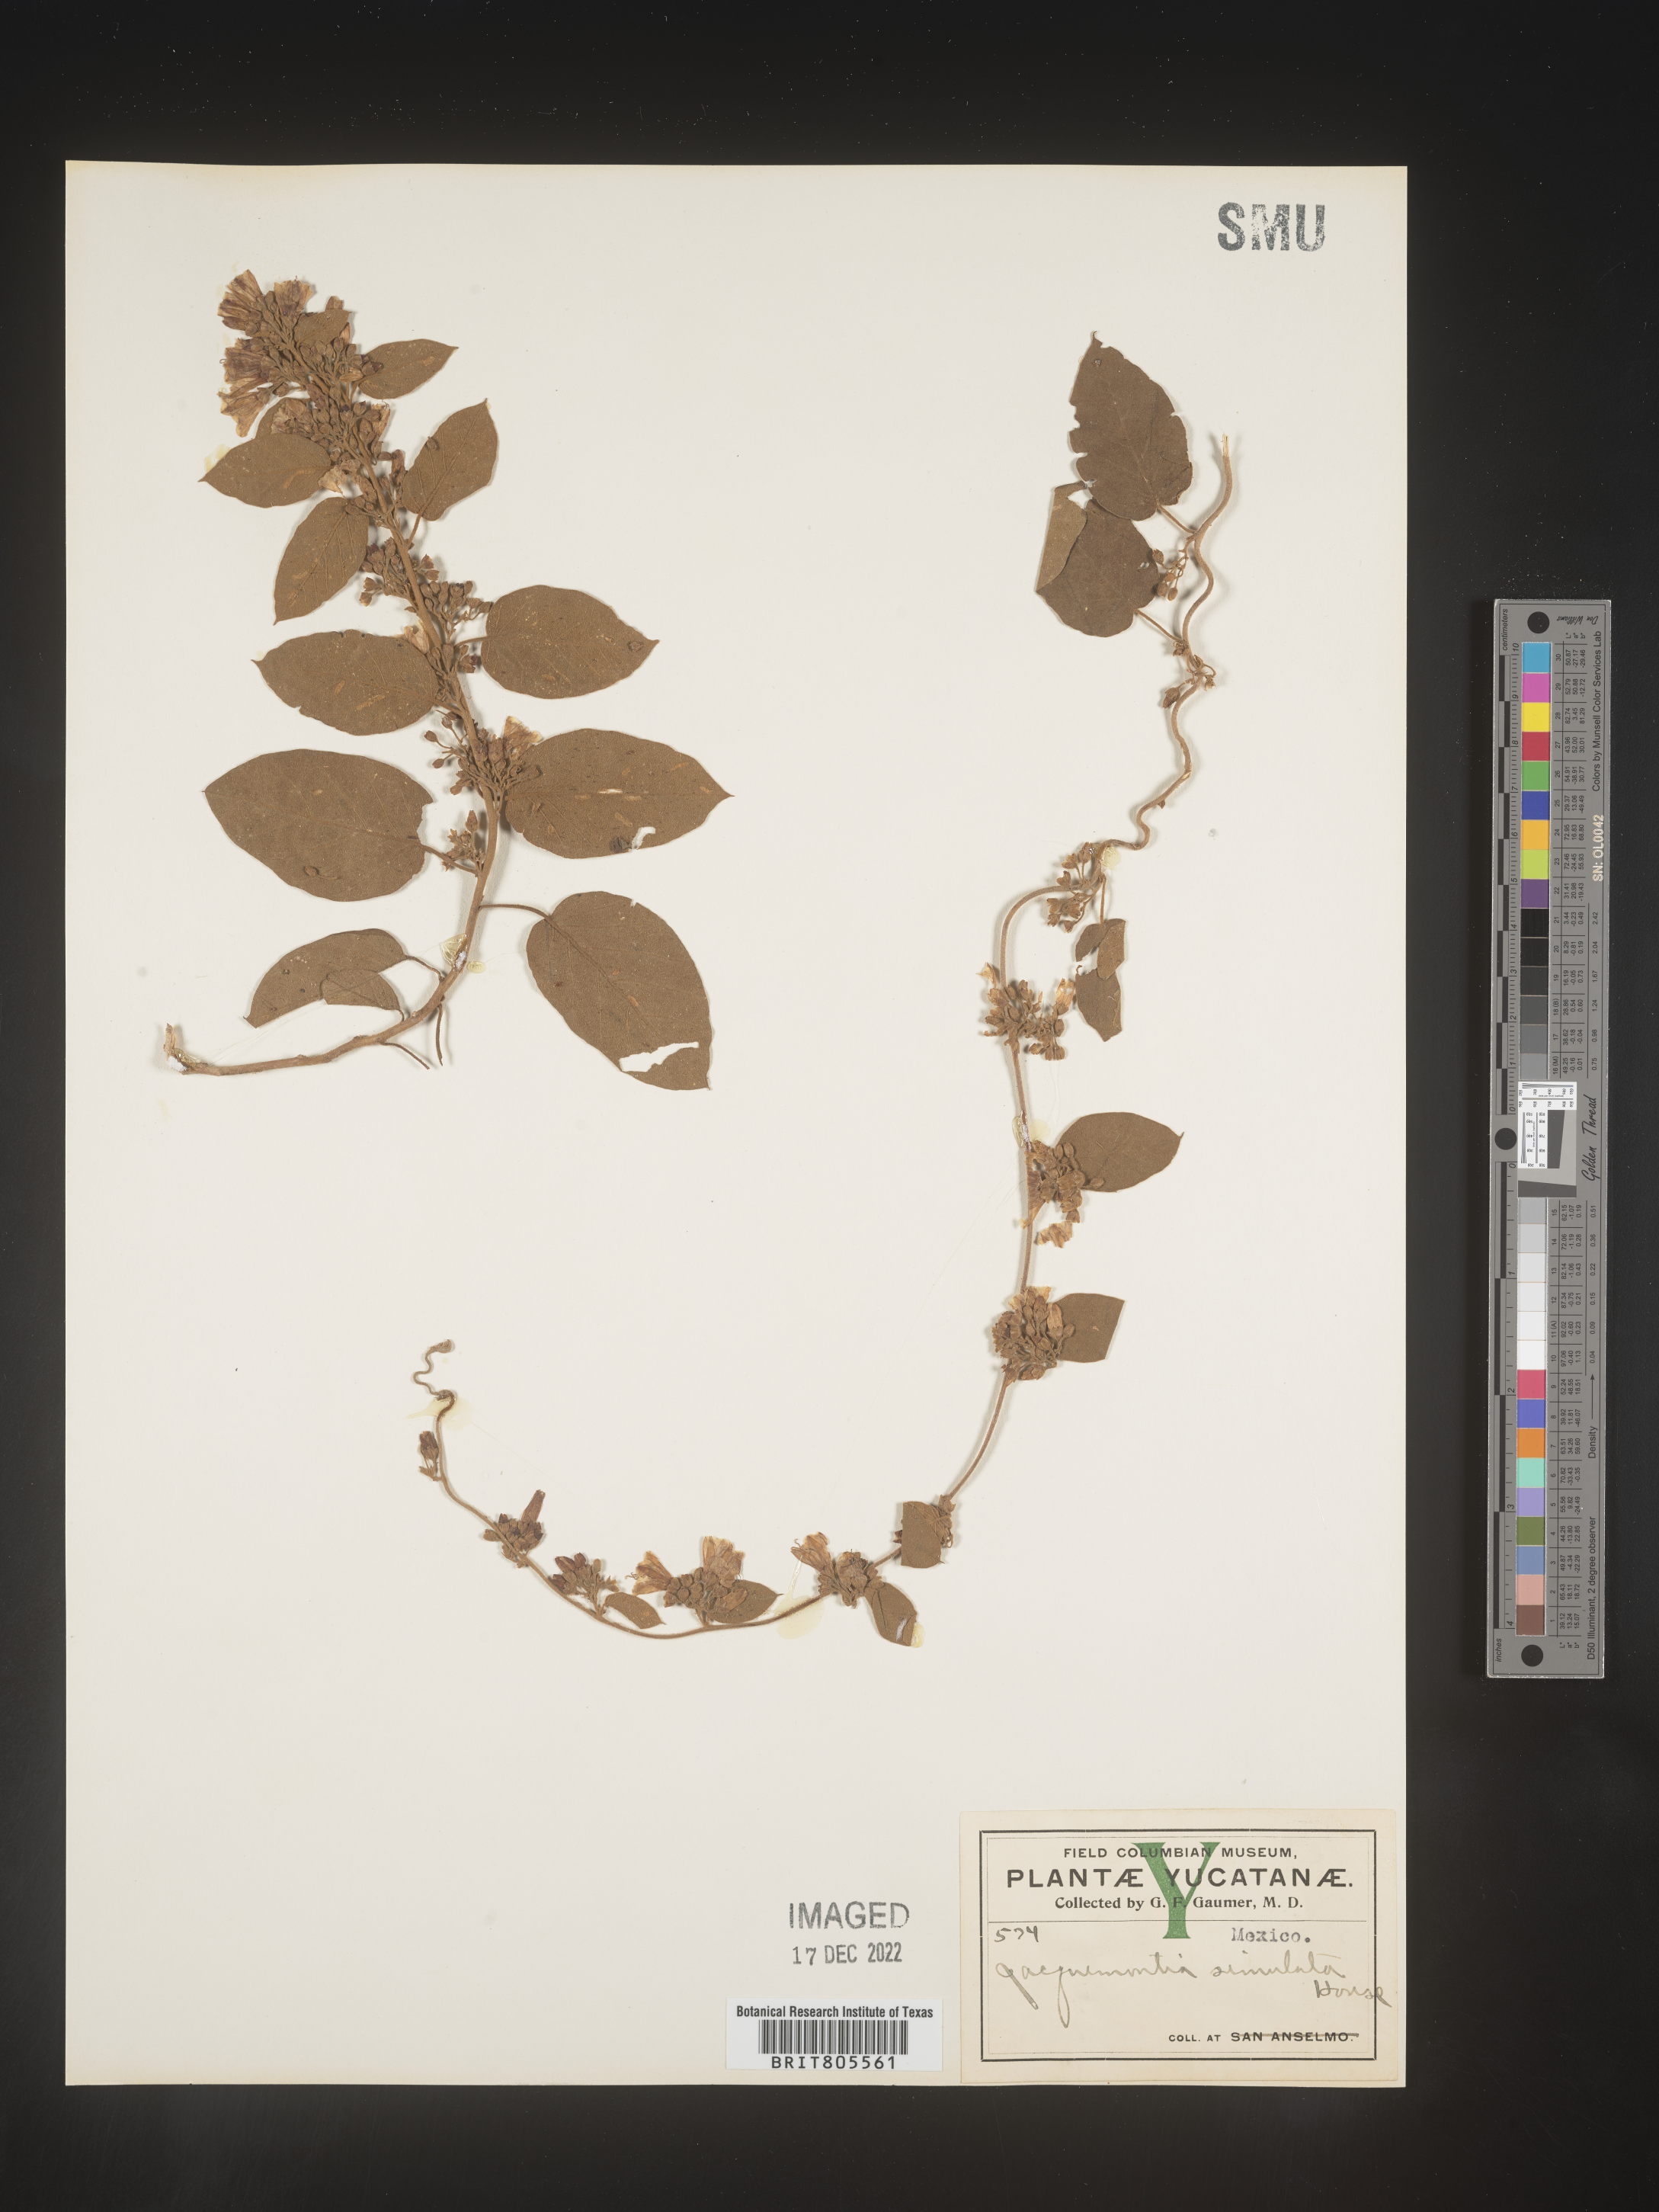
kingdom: Plantae
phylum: Tracheophyta
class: Magnoliopsida
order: Solanales
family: Convolvulaceae
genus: Jacquemontia
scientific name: Jacquemontia
